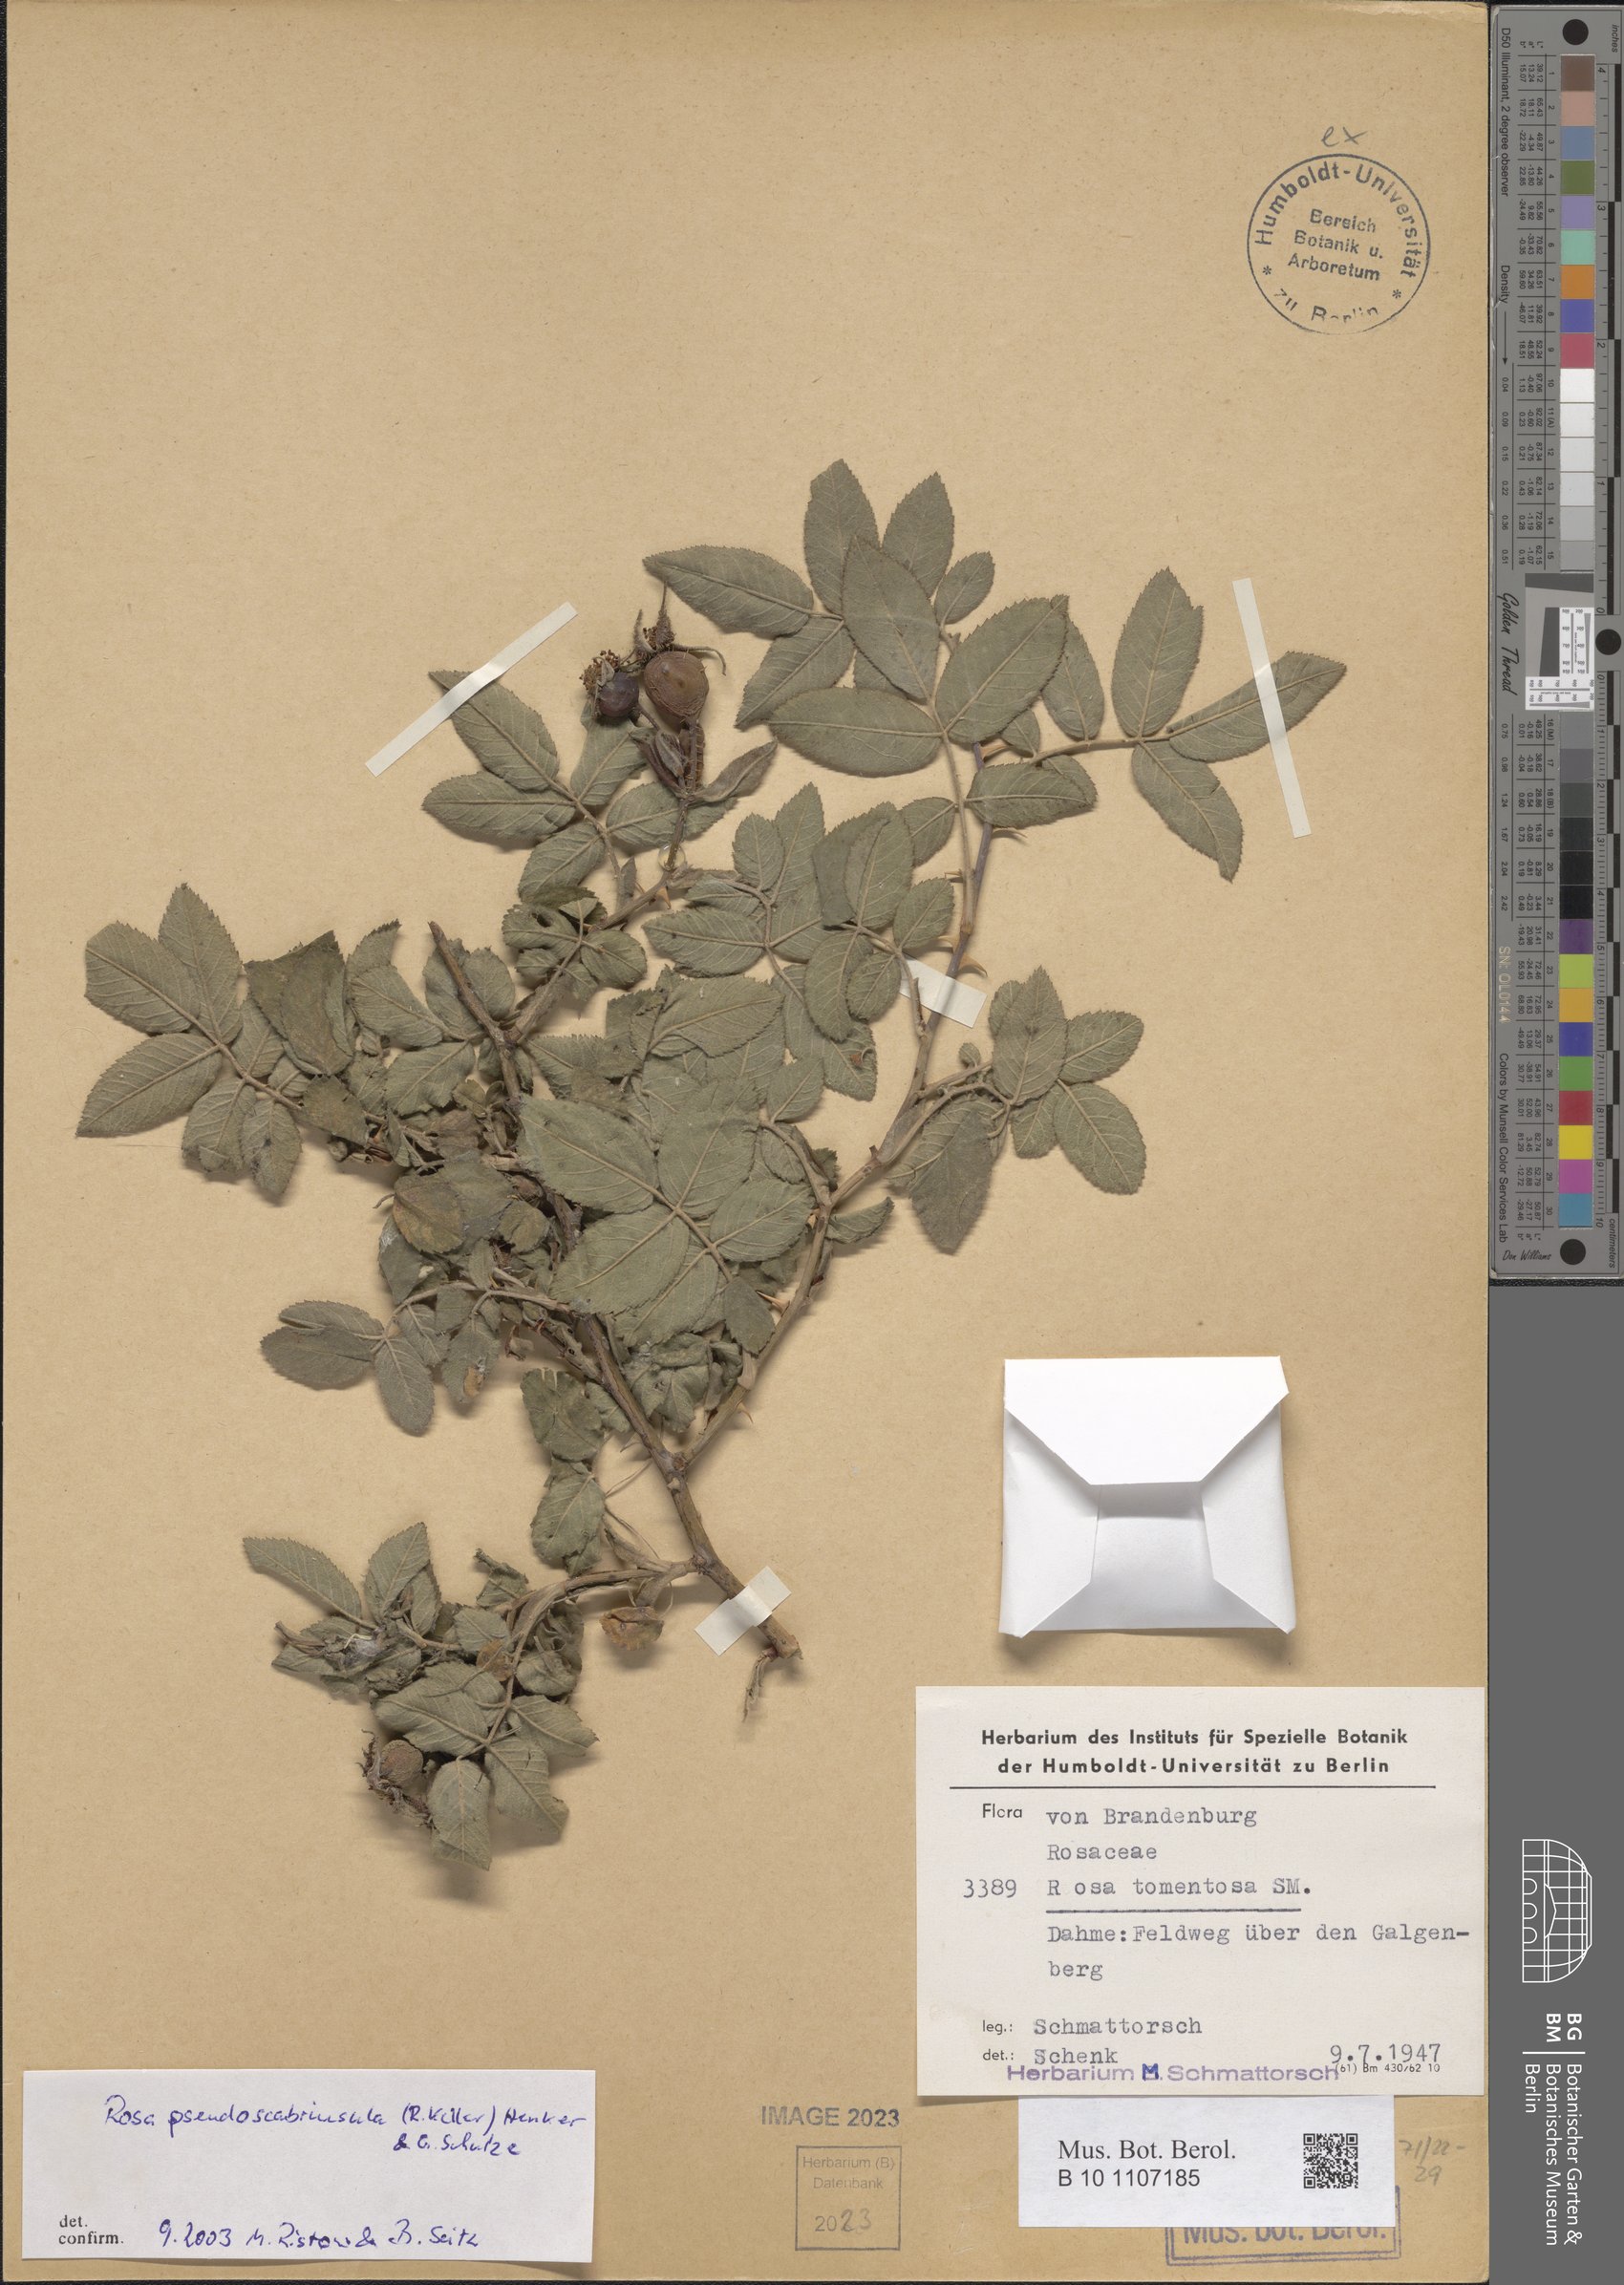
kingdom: Plantae
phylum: Tracheophyta
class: Magnoliopsida
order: Rosales
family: Rosaceae
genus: Rosa
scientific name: Rosa pseudoscabriuscula
